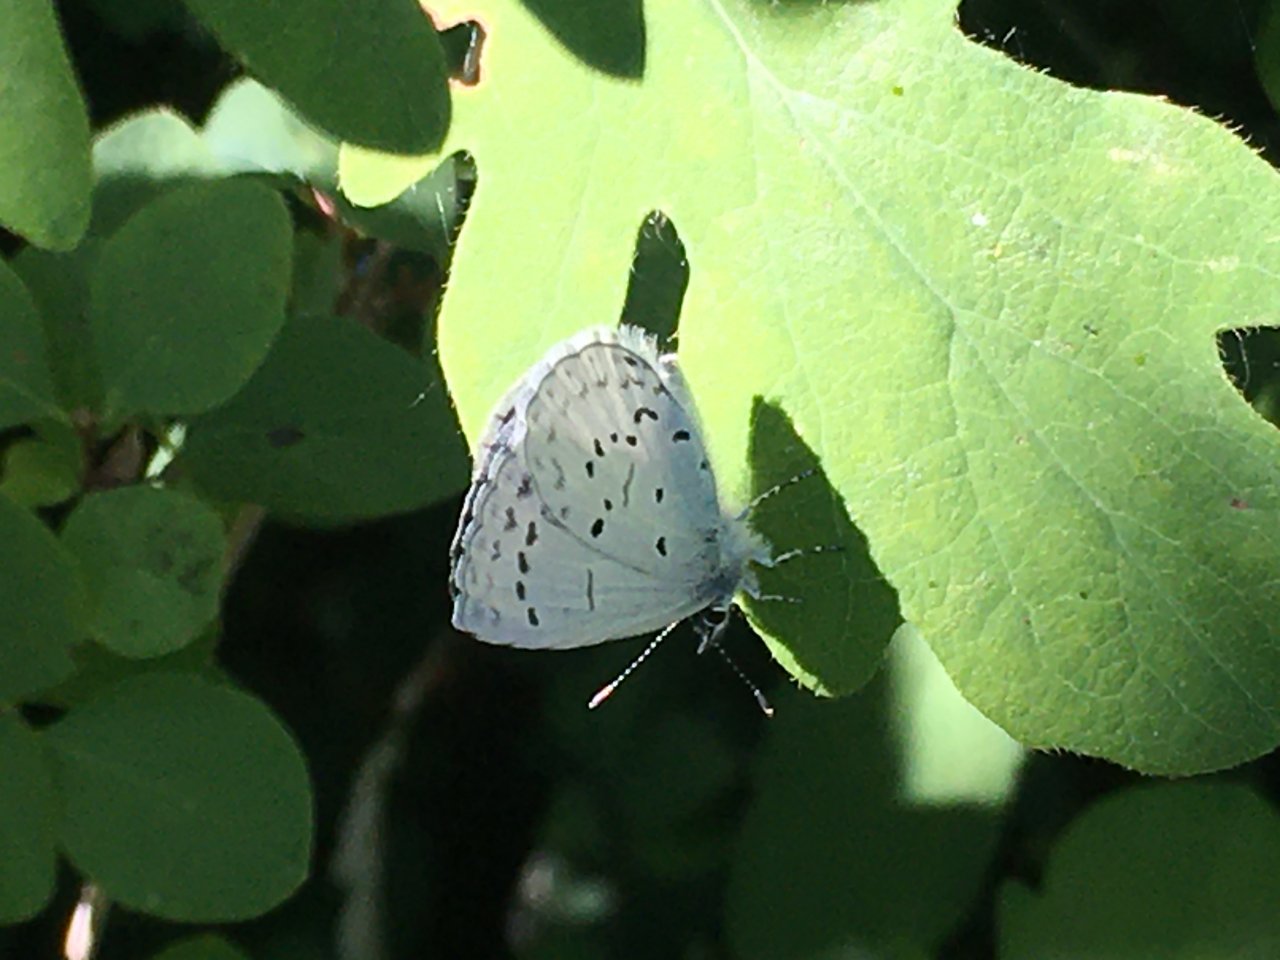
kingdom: Animalia
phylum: Arthropoda
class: Insecta
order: Lepidoptera
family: Lycaenidae
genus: Celastrina
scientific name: Celastrina
